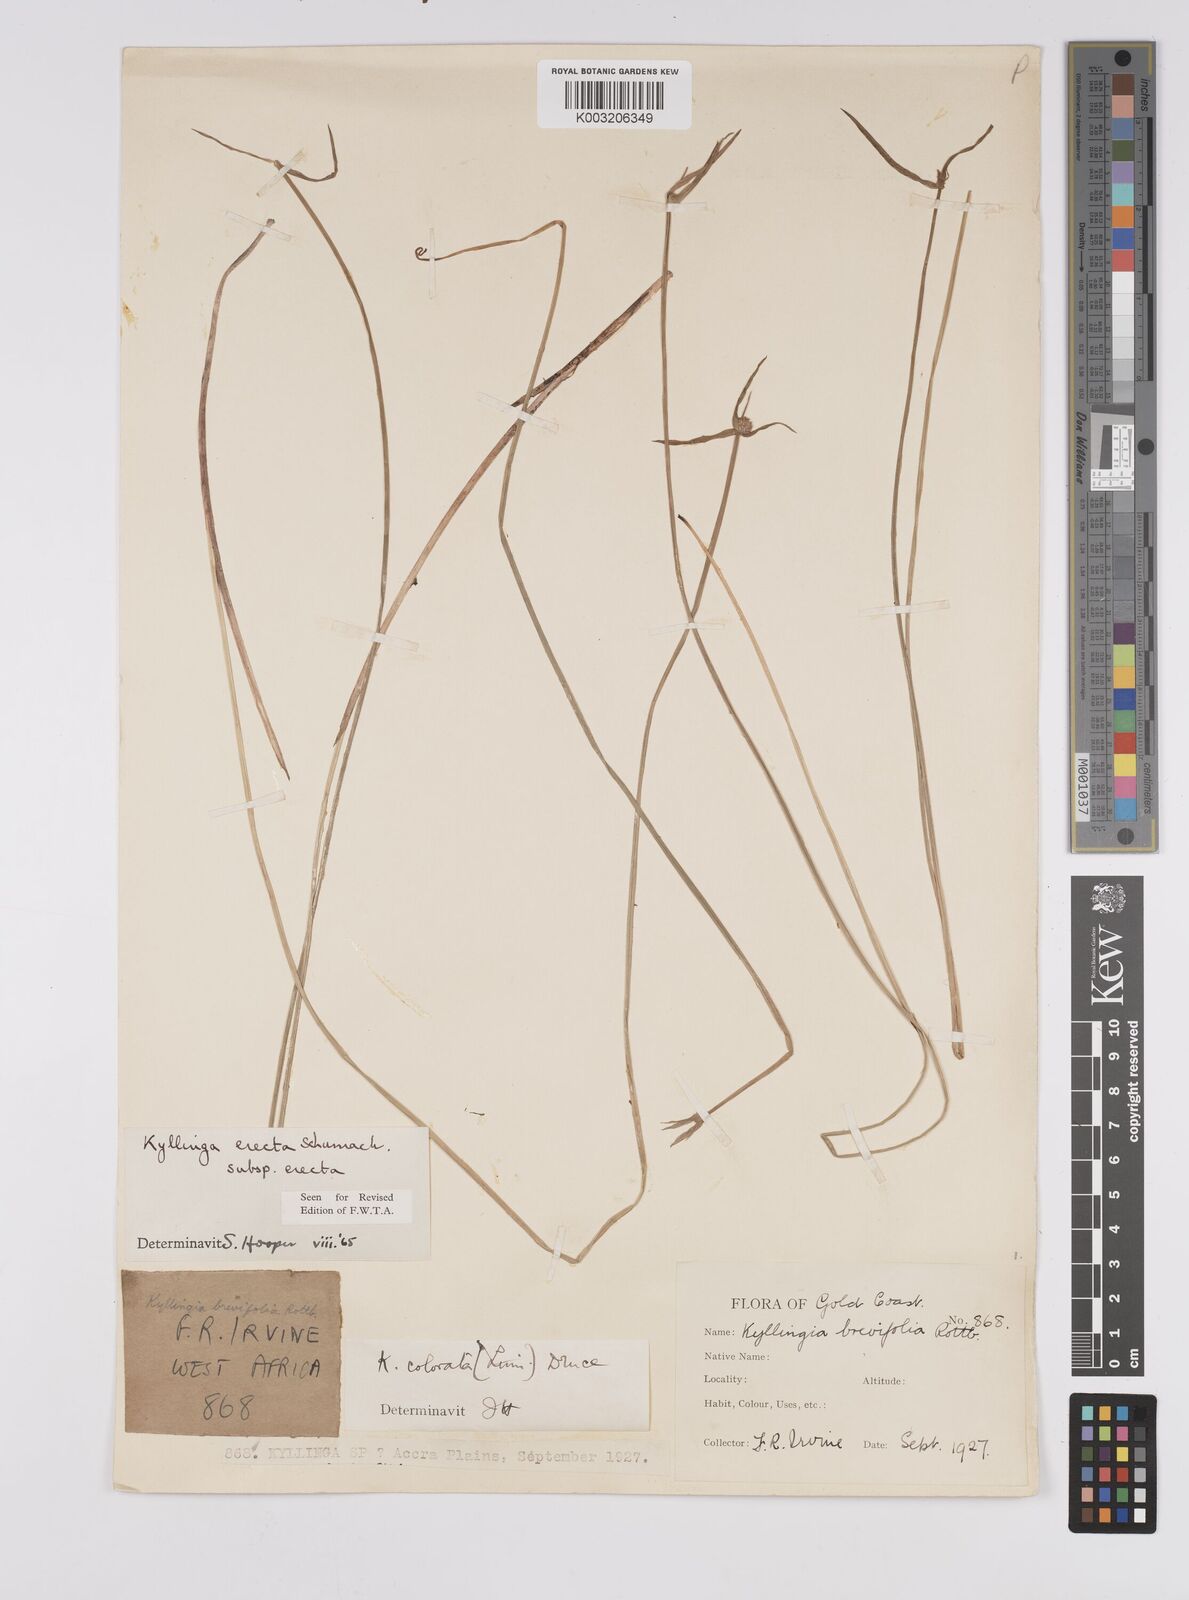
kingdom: Plantae
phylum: Tracheophyta
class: Liliopsida
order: Poales
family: Cyperaceae
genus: Cyperus
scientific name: Cyperus erectus
